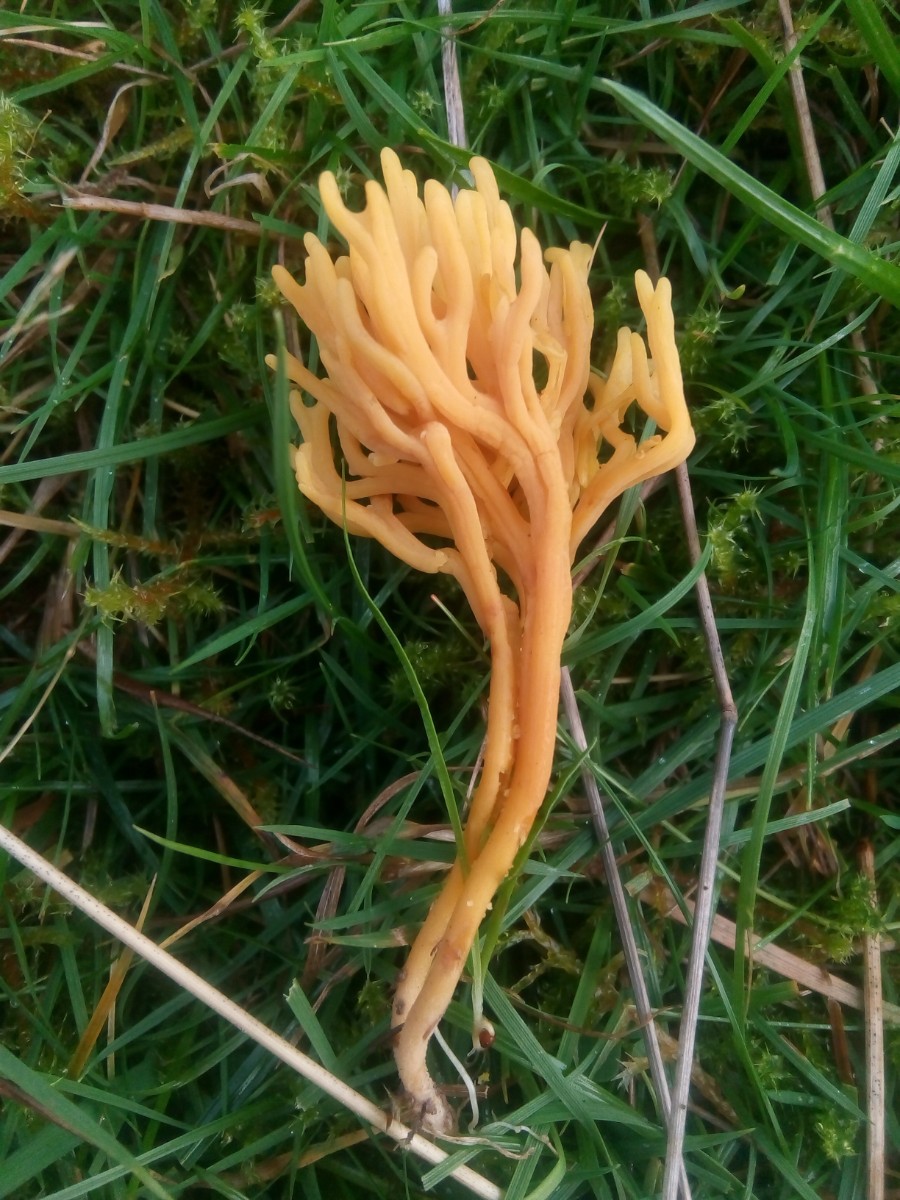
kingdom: Fungi
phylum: Basidiomycota
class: Agaricomycetes
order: Agaricales
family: Clavariaceae
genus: Clavulinopsis
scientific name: Clavulinopsis corniculata
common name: eng-køllesvamp
